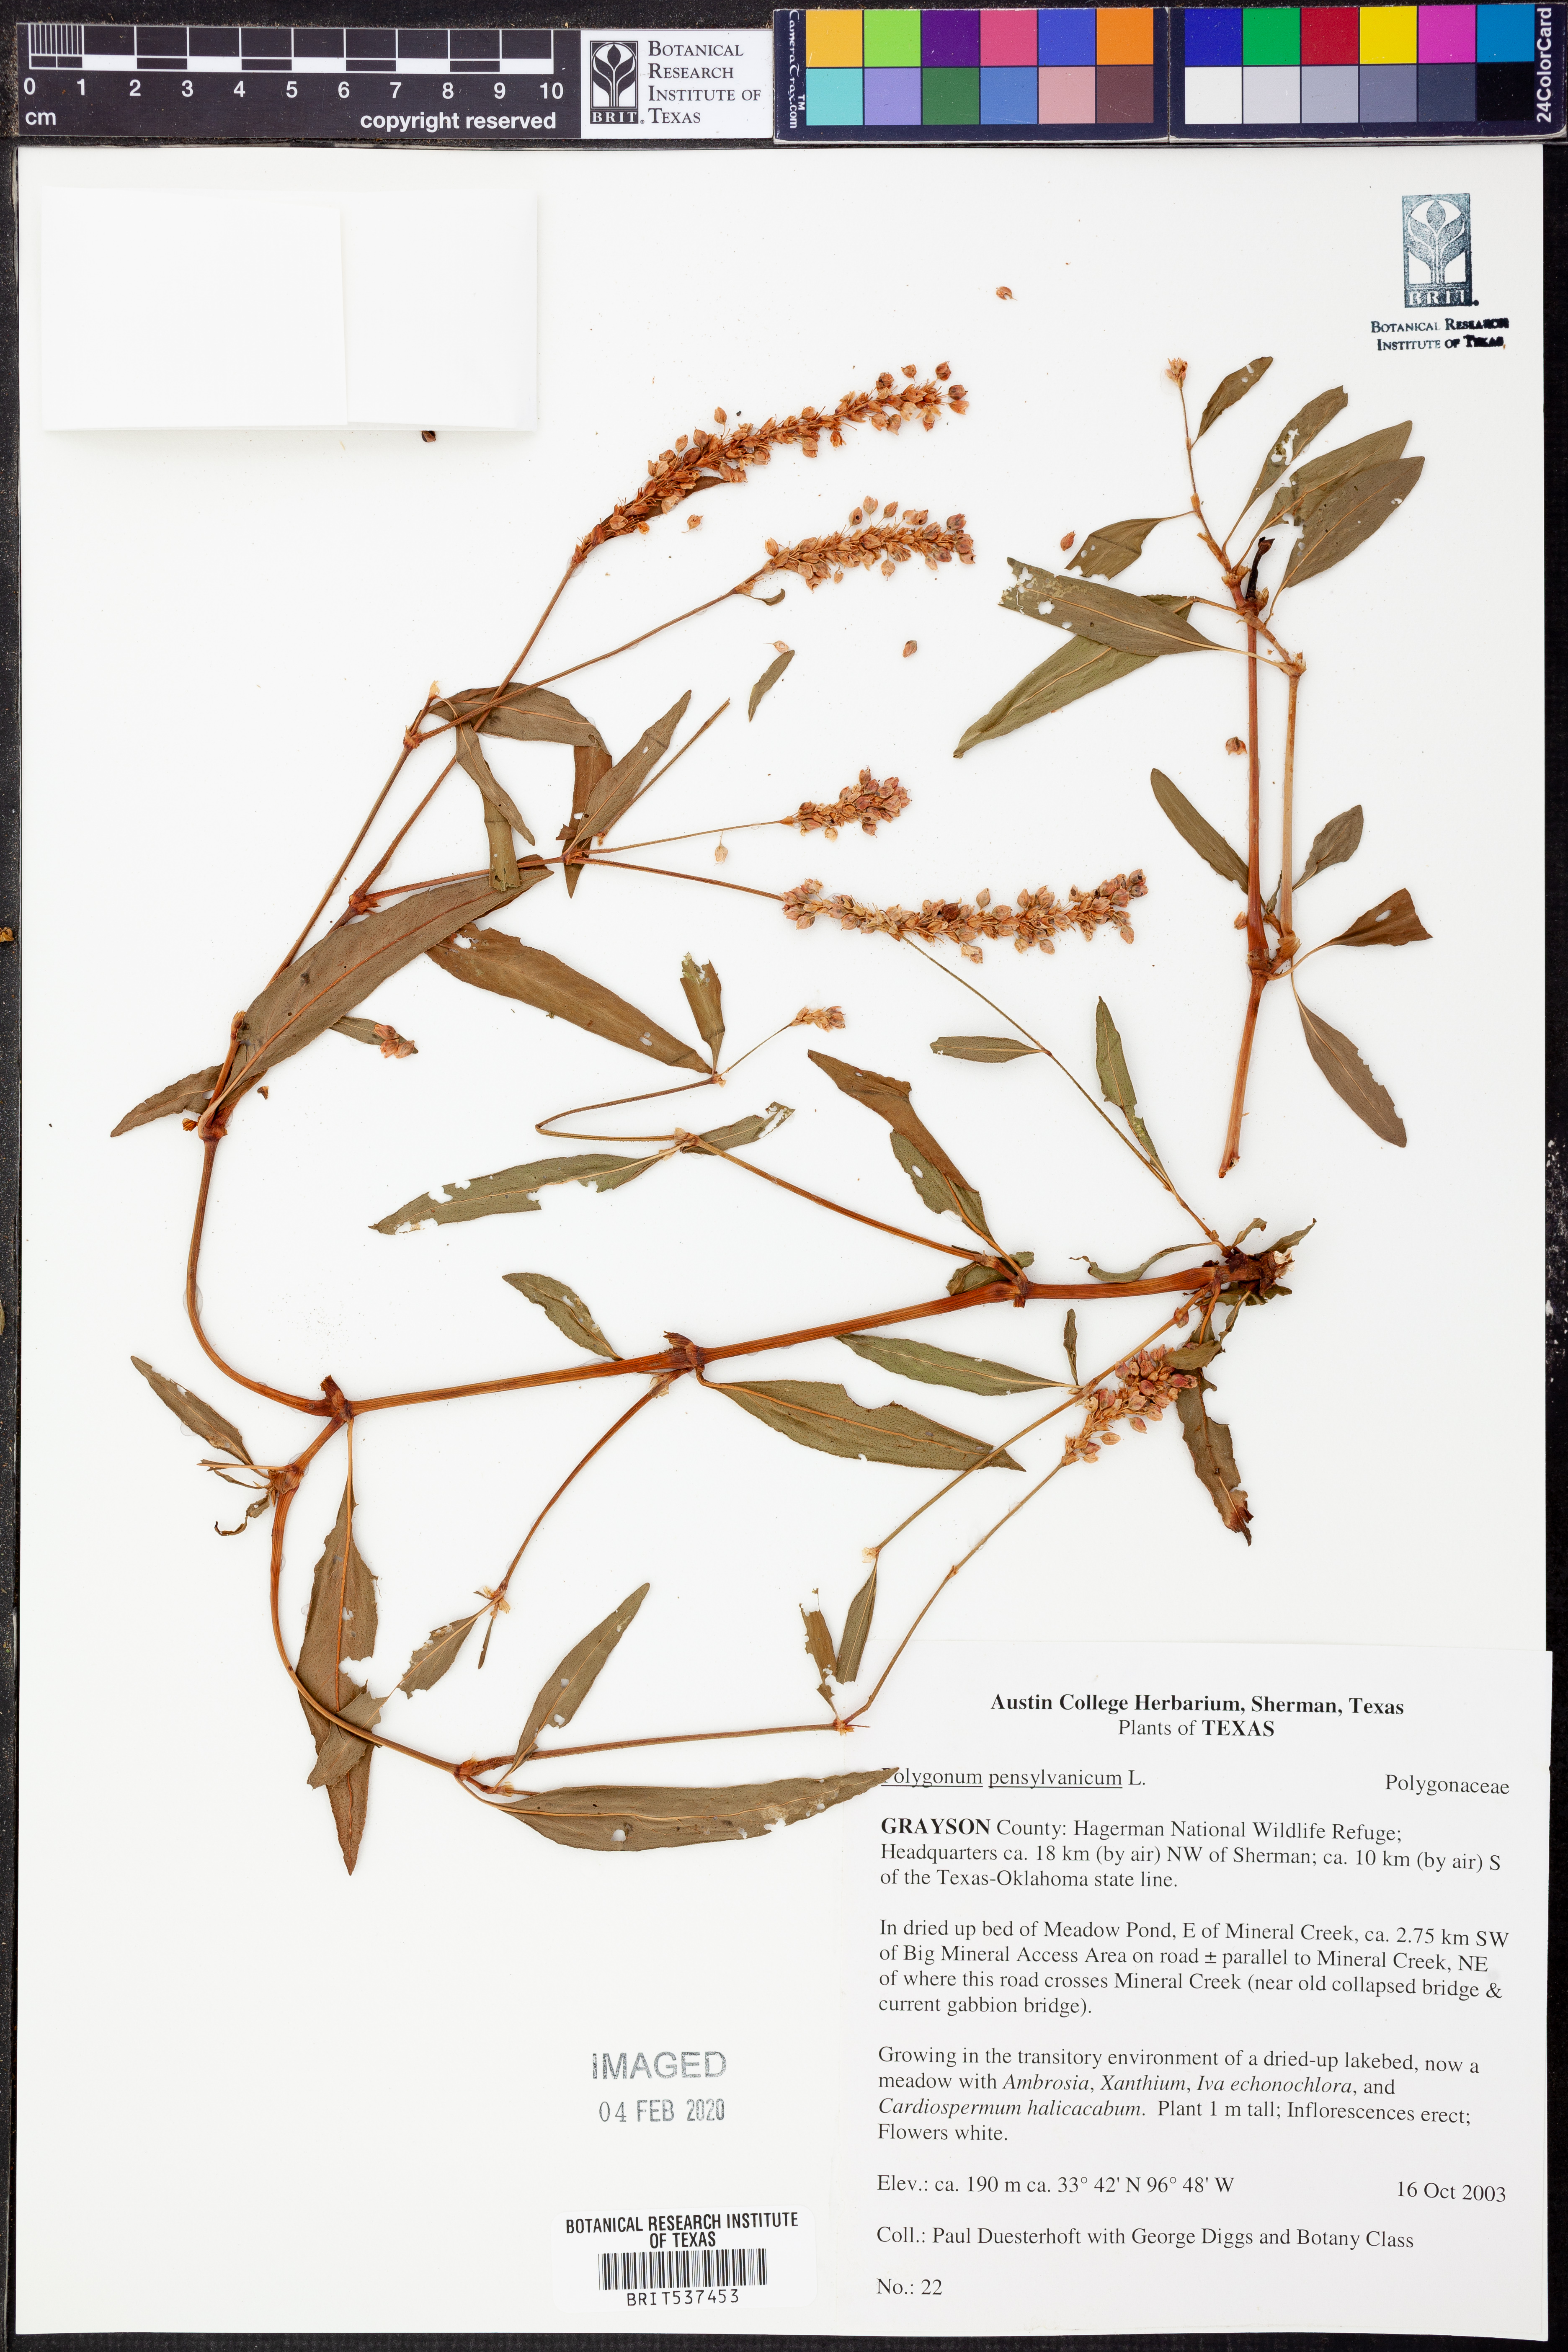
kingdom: Plantae
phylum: Tracheophyta
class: Magnoliopsida
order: Caryophyllales
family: Polygonaceae
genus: Persicaria
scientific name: Persicaria pensylvanica
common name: Pinkweed
